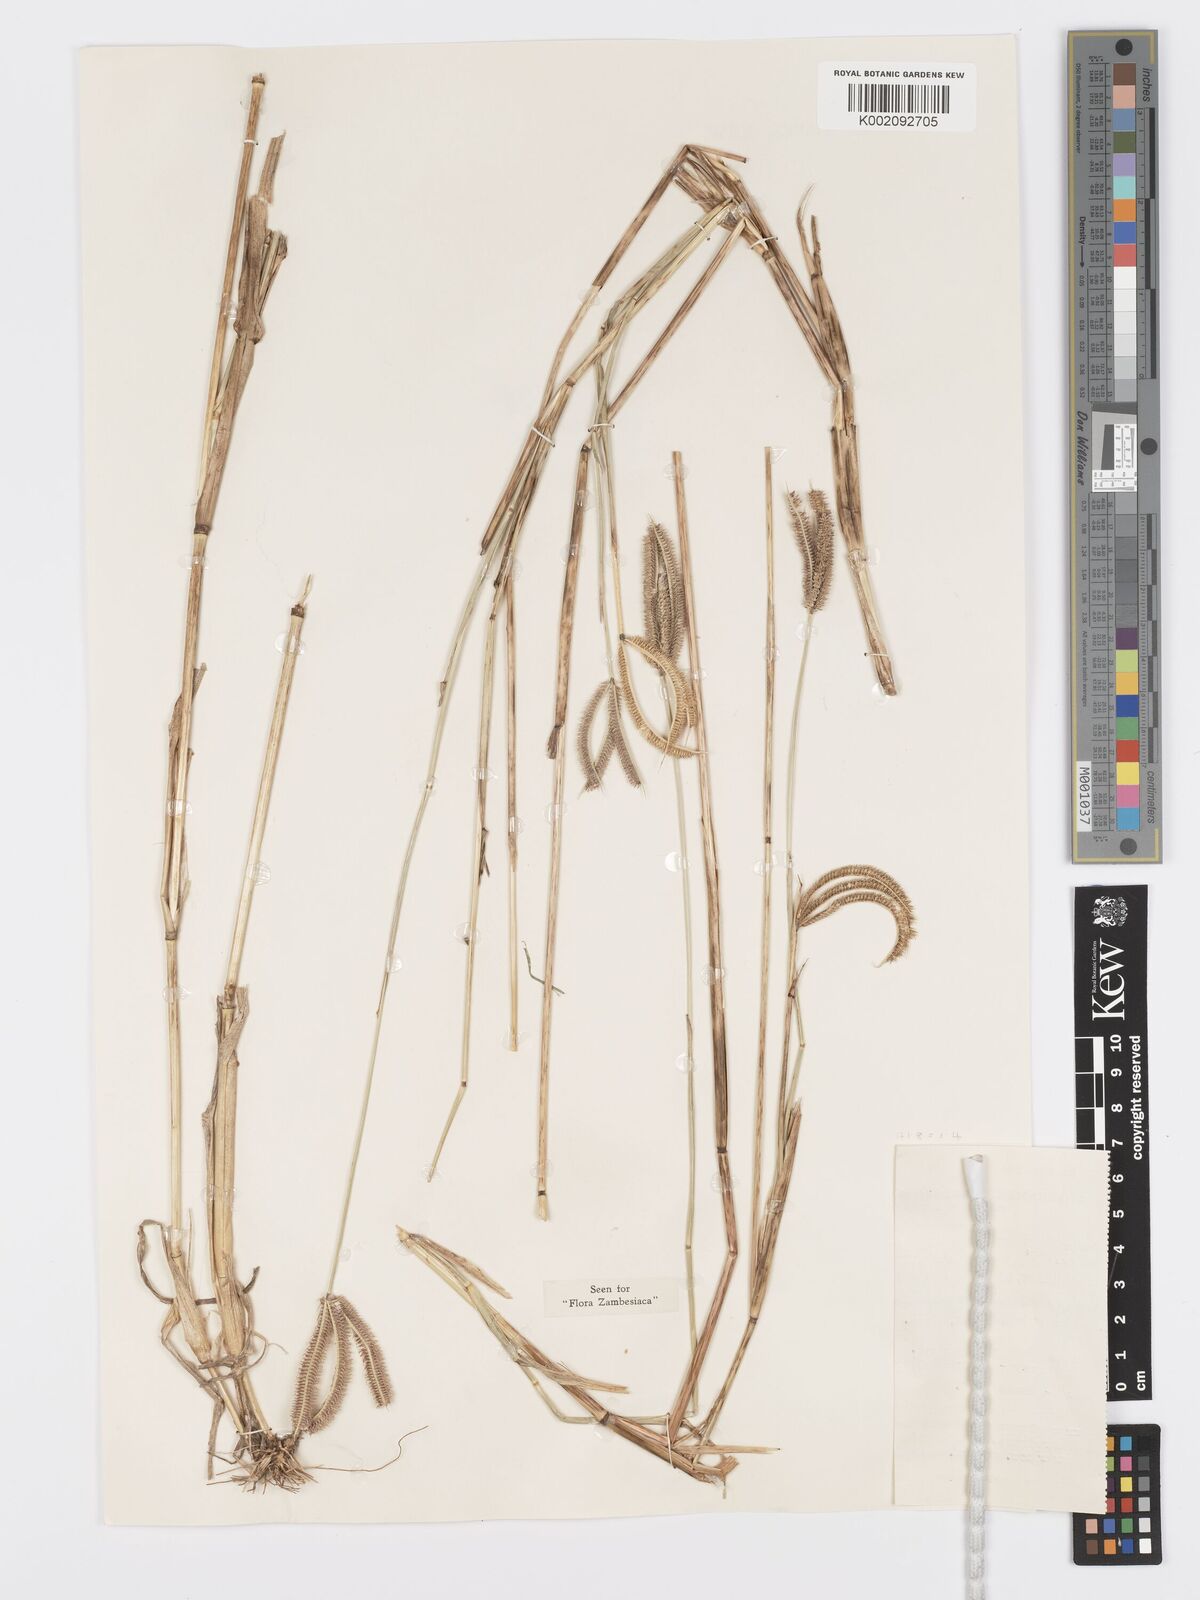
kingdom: Plantae
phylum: Tracheophyta
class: Liliopsida
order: Poales
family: Poaceae
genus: Dactyloctenium
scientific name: Dactyloctenium giganteum
